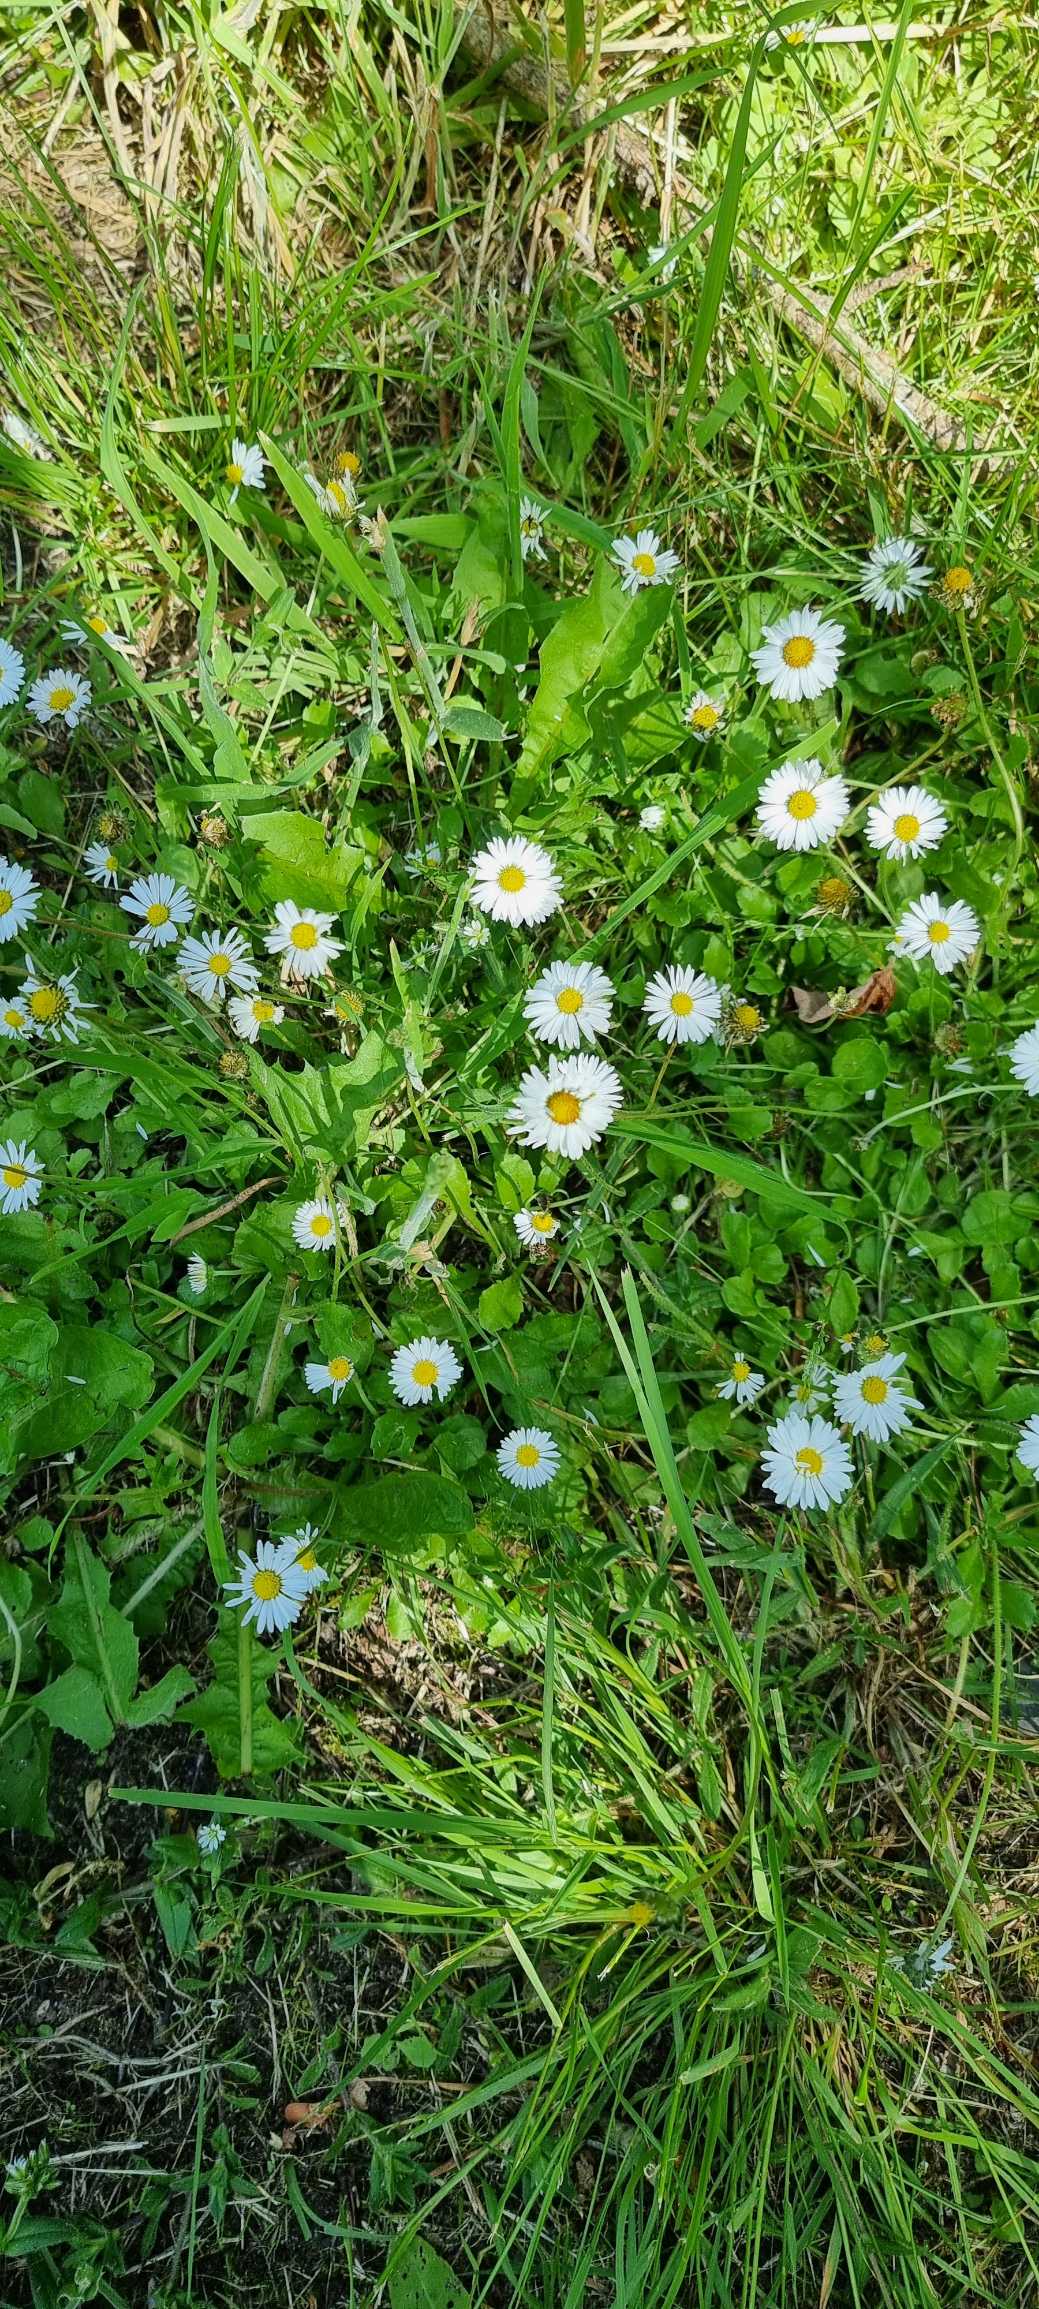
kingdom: Plantae
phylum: Tracheophyta
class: Magnoliopsida
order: Asterales
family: Asteraceae
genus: Bellis
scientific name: Bellis perennis
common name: Tusindfryd
